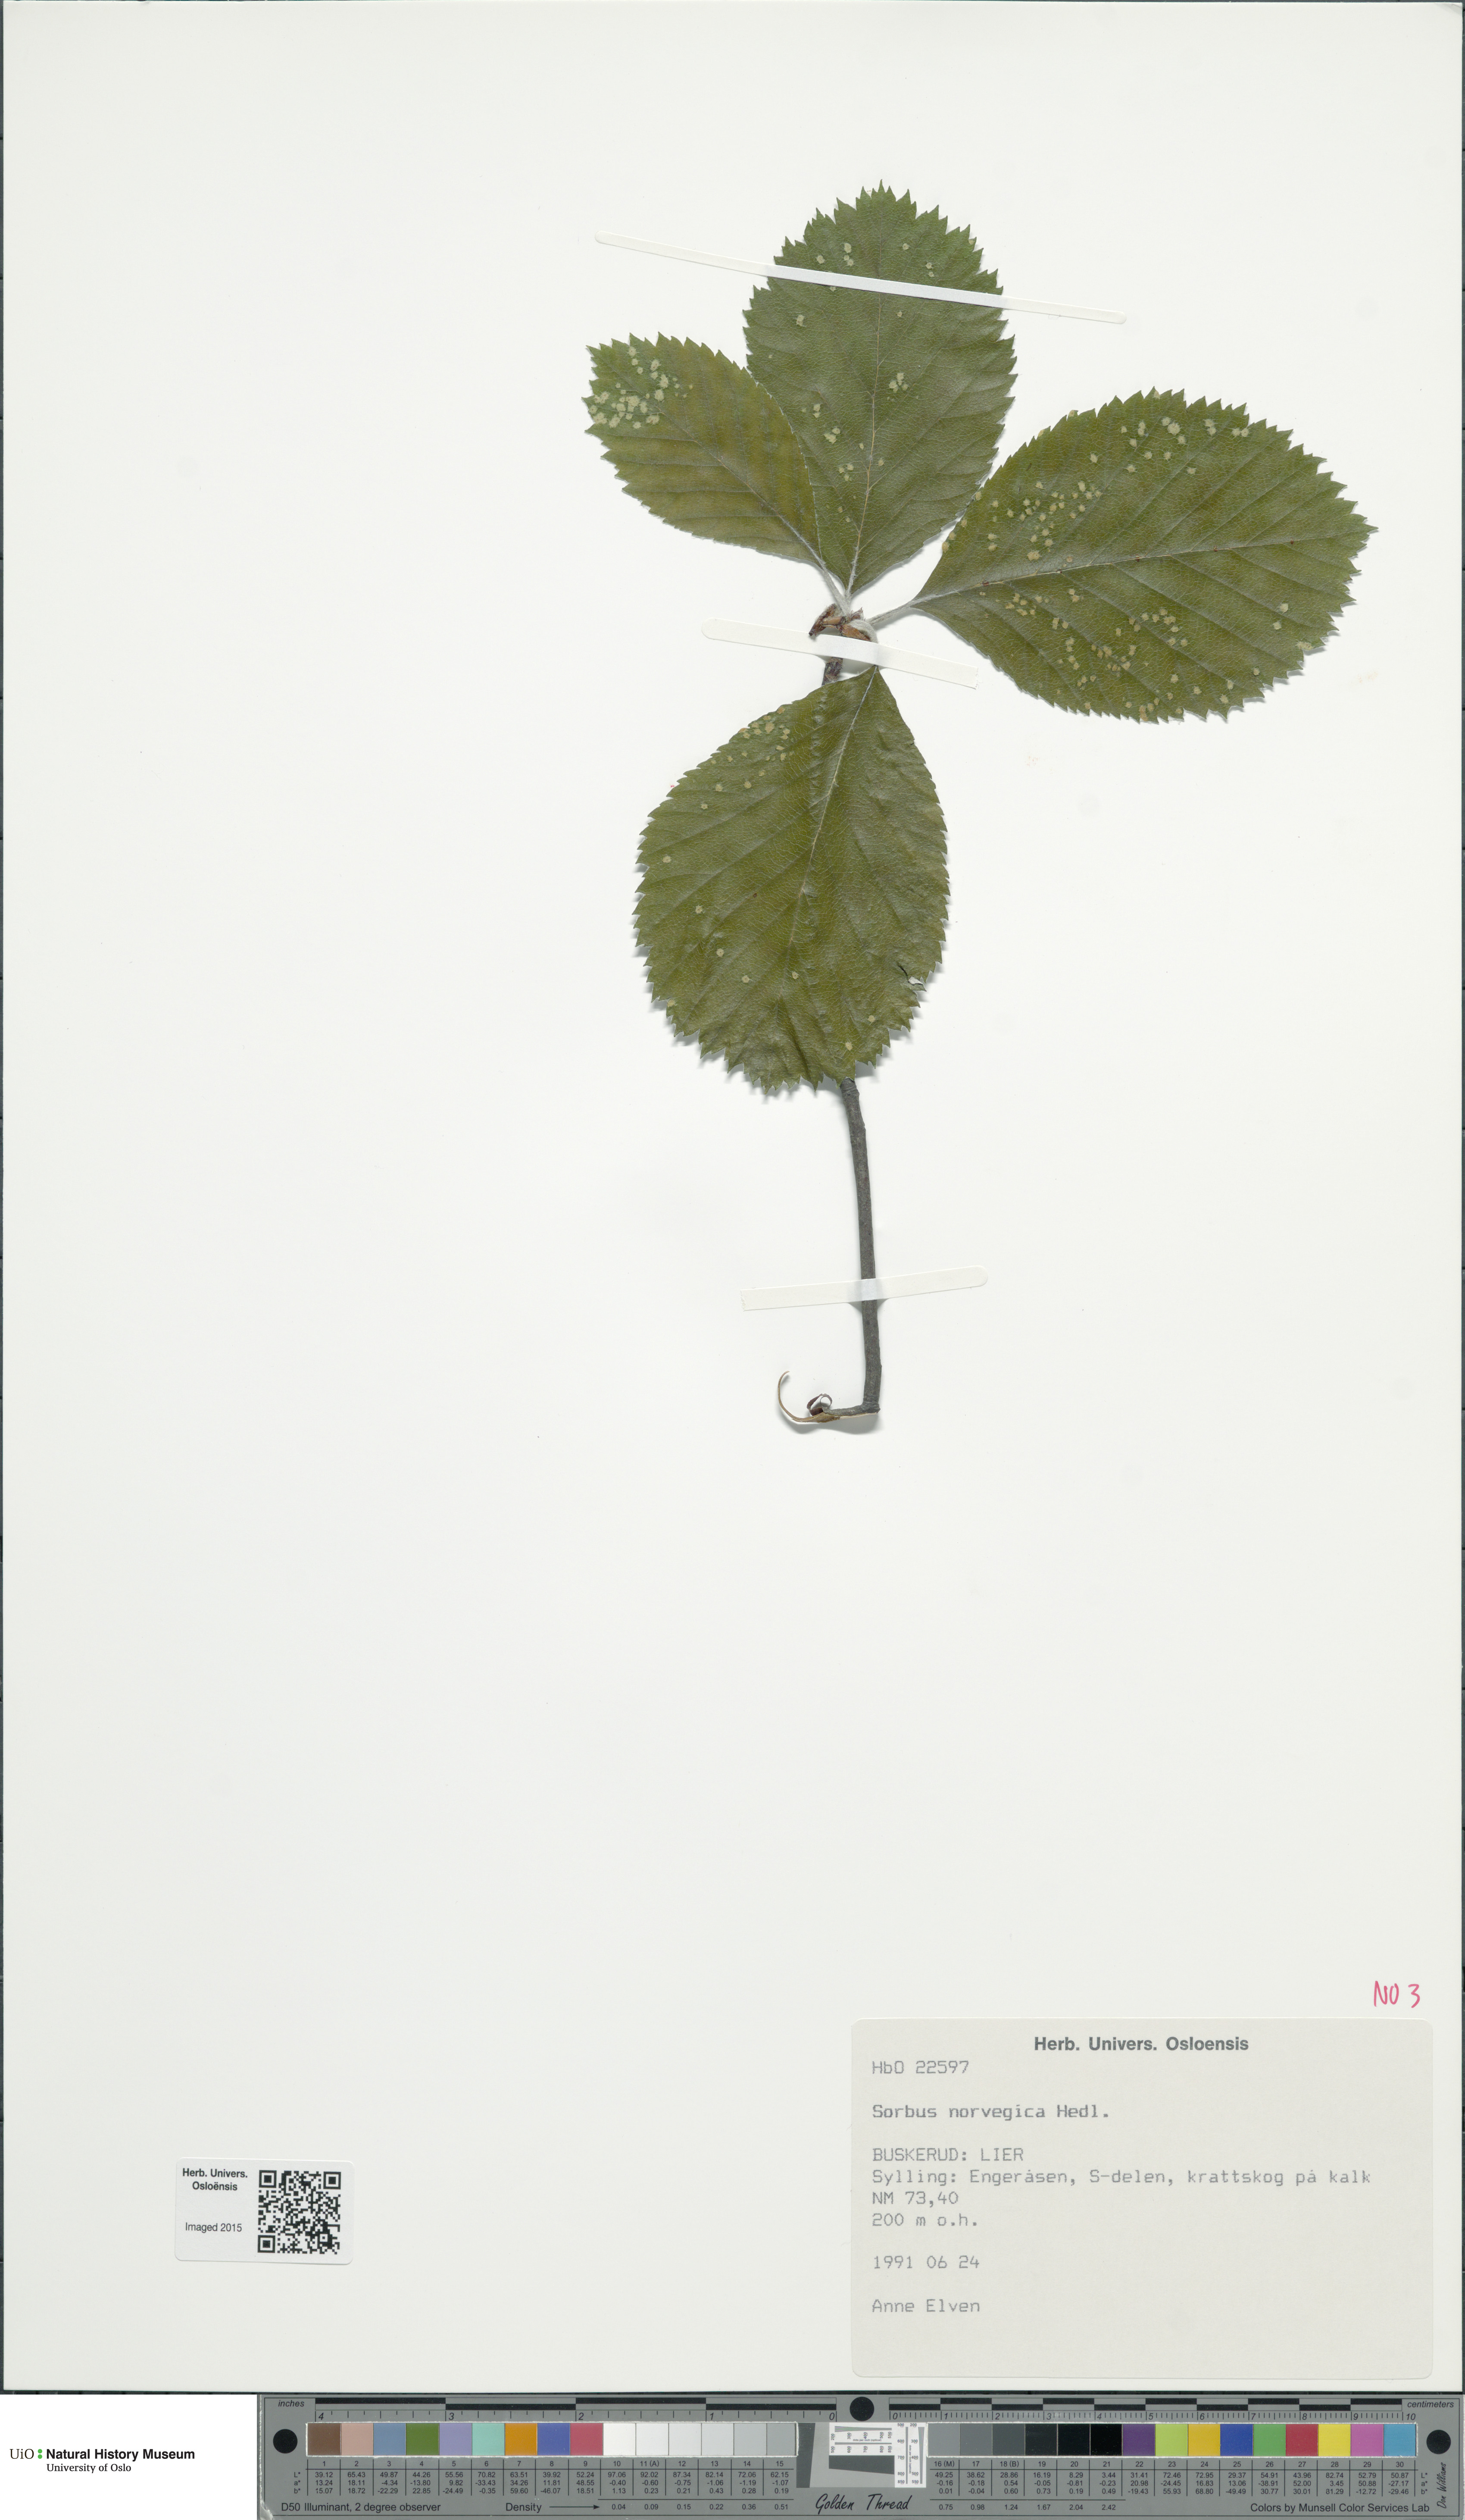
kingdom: Plantae
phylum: Tracheophyta
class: Magnoliopsida
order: Rosales
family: Rosaceae
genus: Aria
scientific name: Aria obtusifolia
